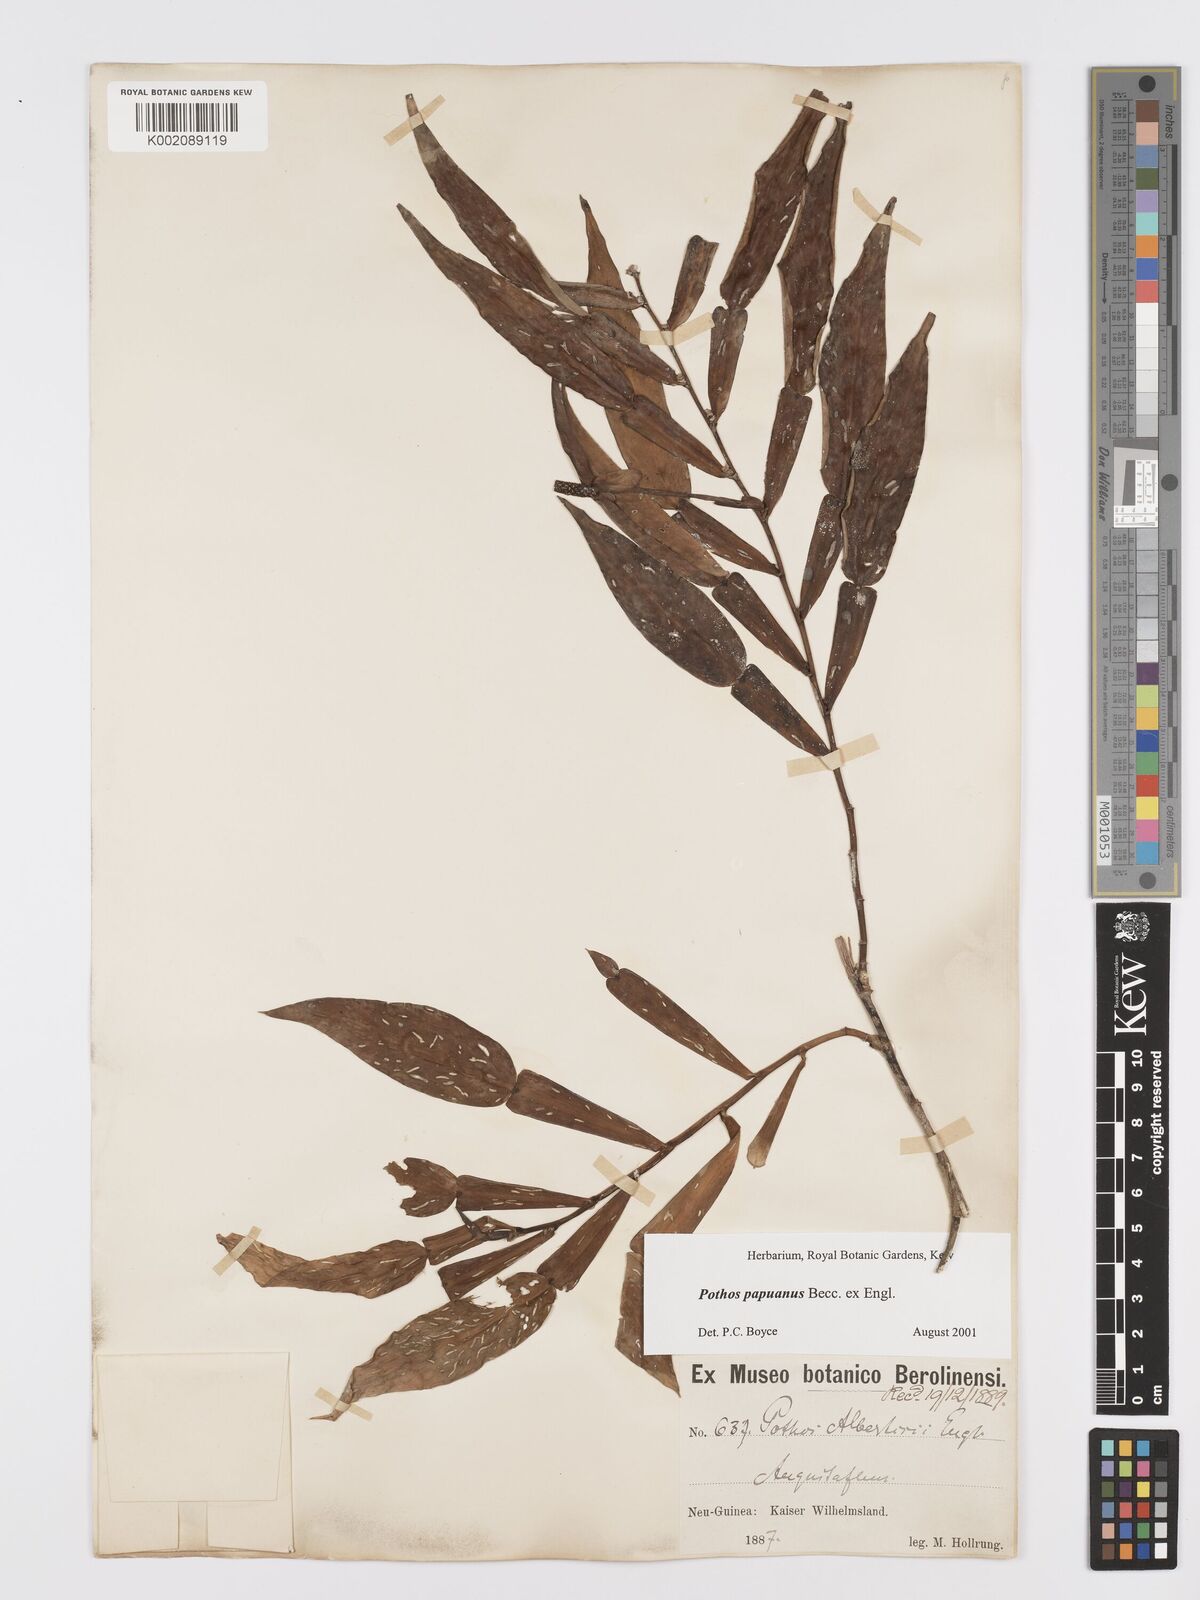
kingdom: Plantae
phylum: Tracheophyta
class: Liliopsida
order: Alismatales
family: Araceae
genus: Pothos
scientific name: Pothos papuanus
